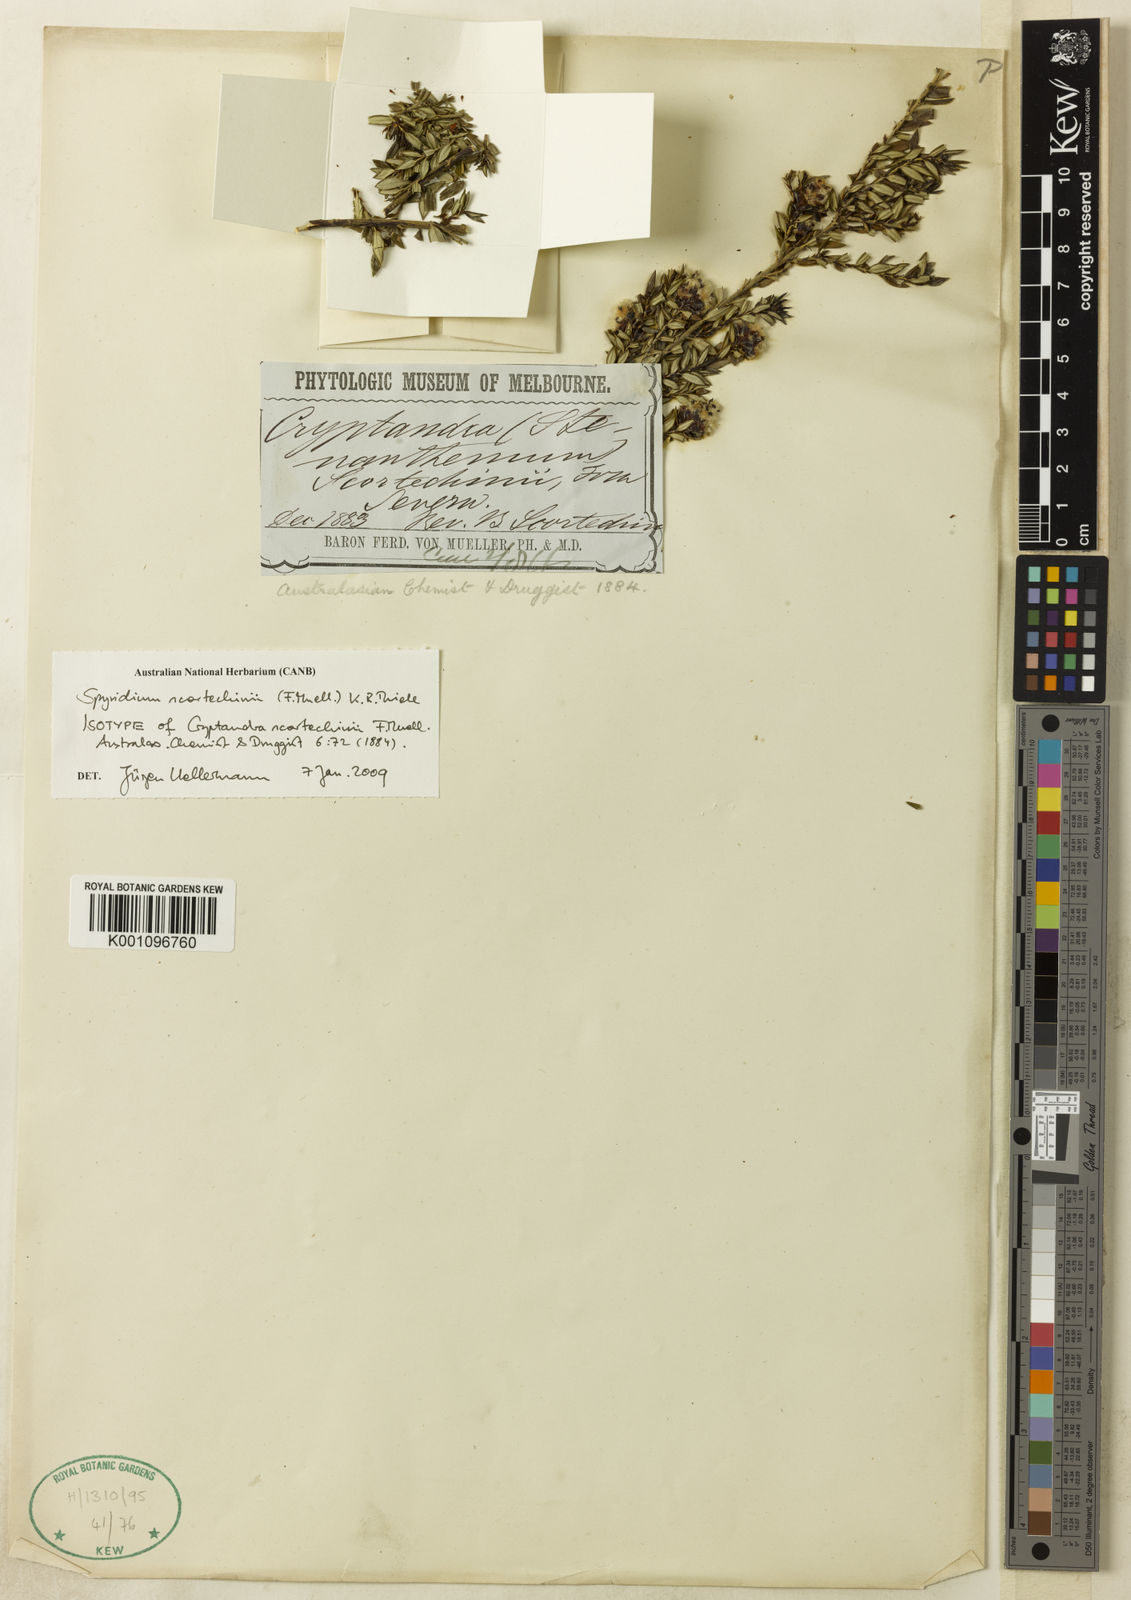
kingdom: Plantae
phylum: Tracheophyta
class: Magnoliopsida
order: Rosales
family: Rhamnaceae
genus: Spyridium
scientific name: Spyridium scortechinii
